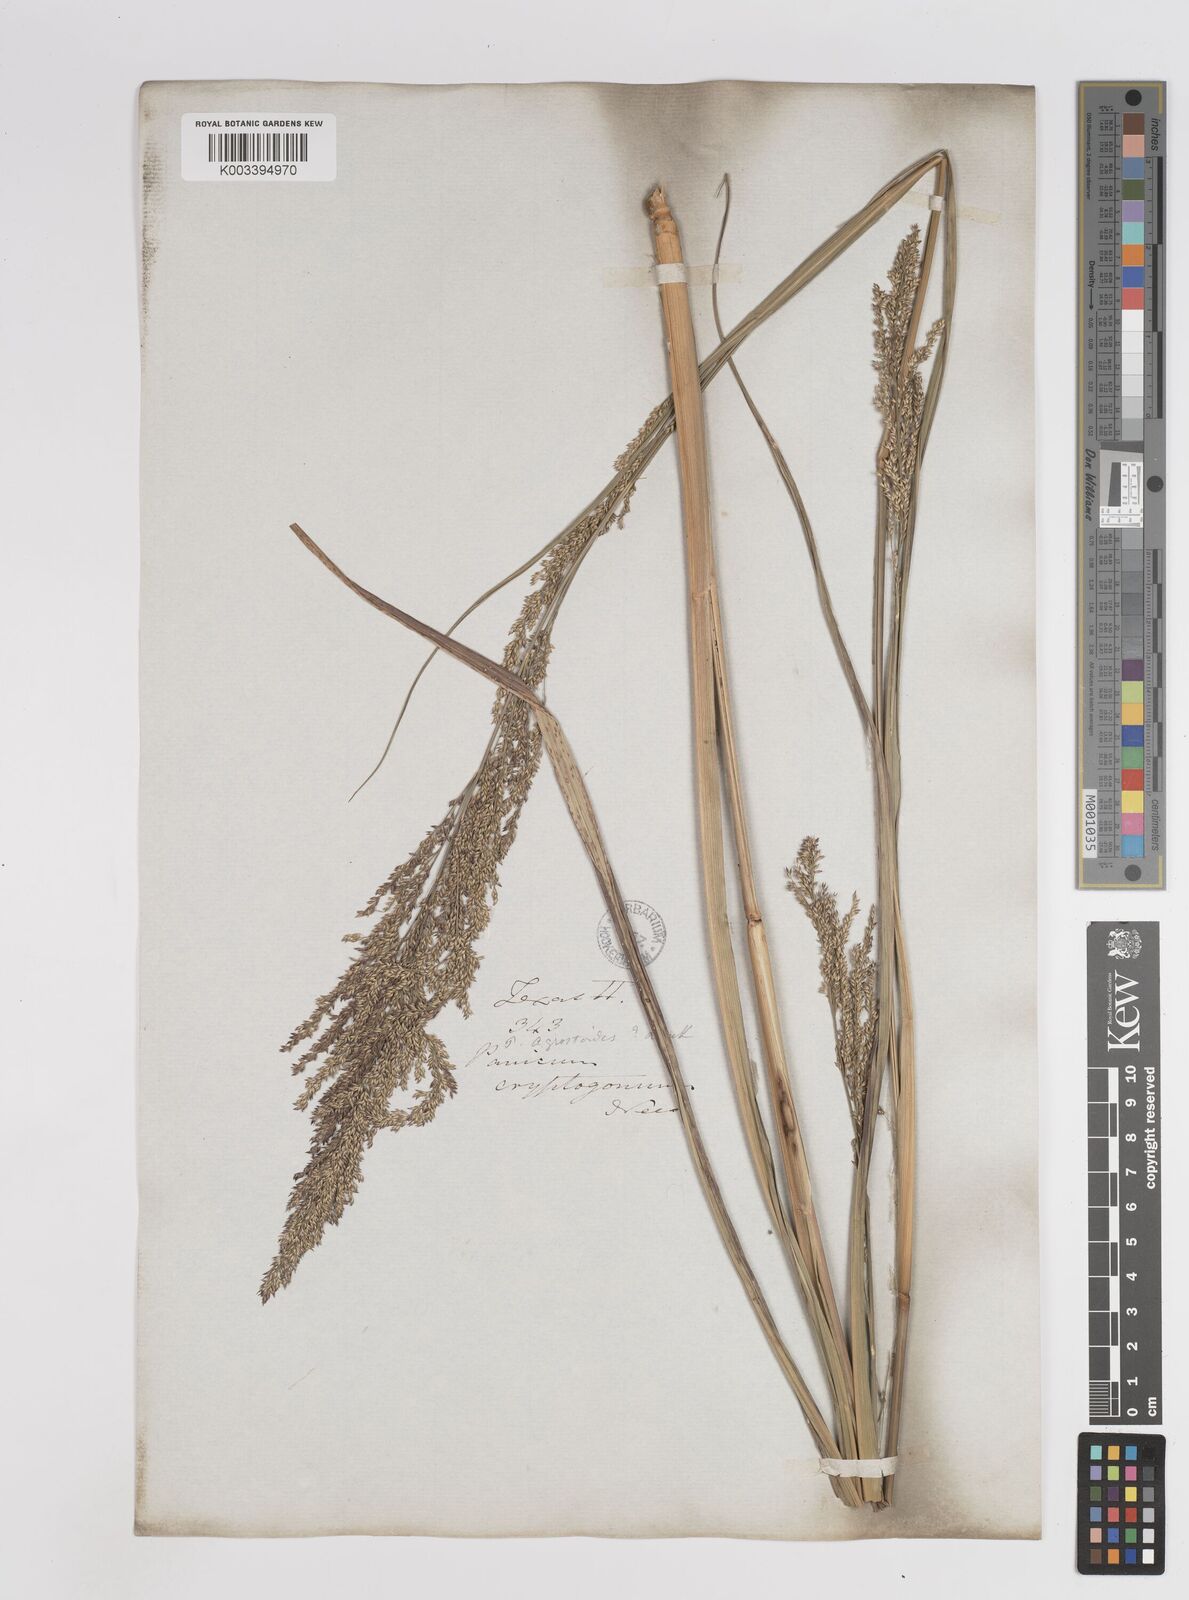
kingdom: Plantae
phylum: Tracheophyta
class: Liliopsida
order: Poales
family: Poaceae
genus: Steinchisma
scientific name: Steinchisma laxum
